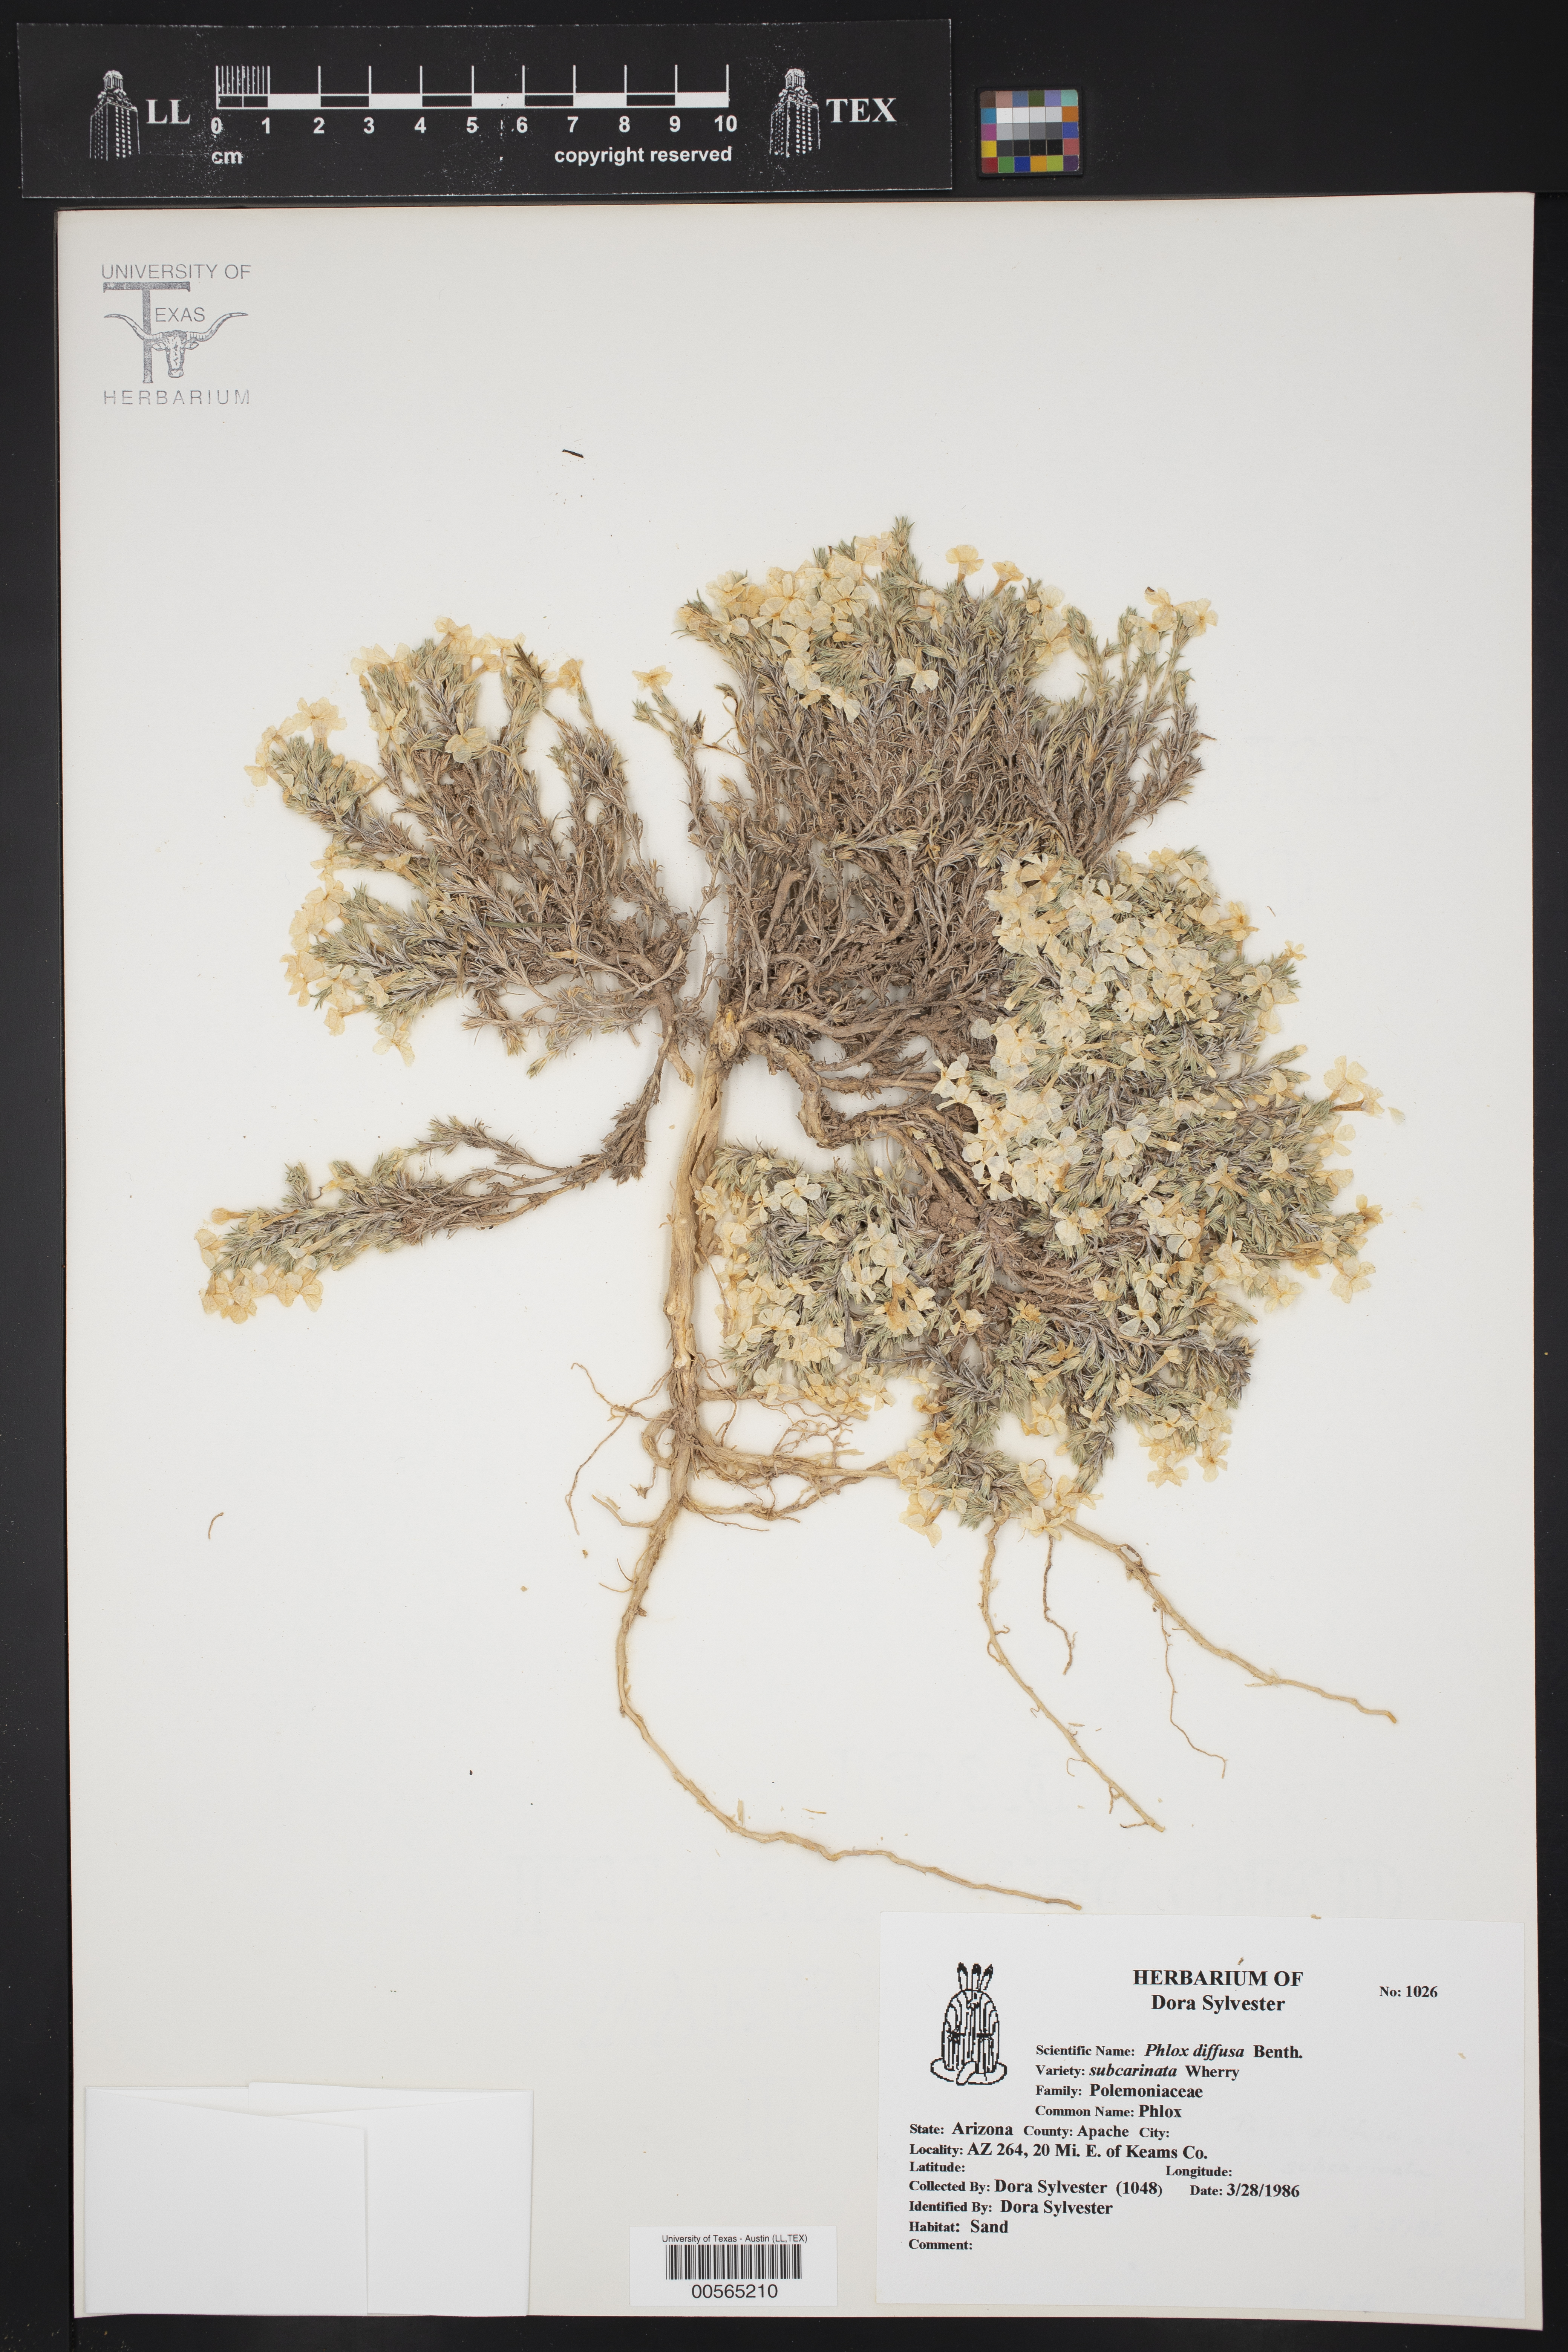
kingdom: Plantae
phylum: Tracheophyta
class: Magnoliopsida
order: Ericales
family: Polemoniaceae
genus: Phlox
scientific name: Phlox austromontana
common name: Desert phlox
